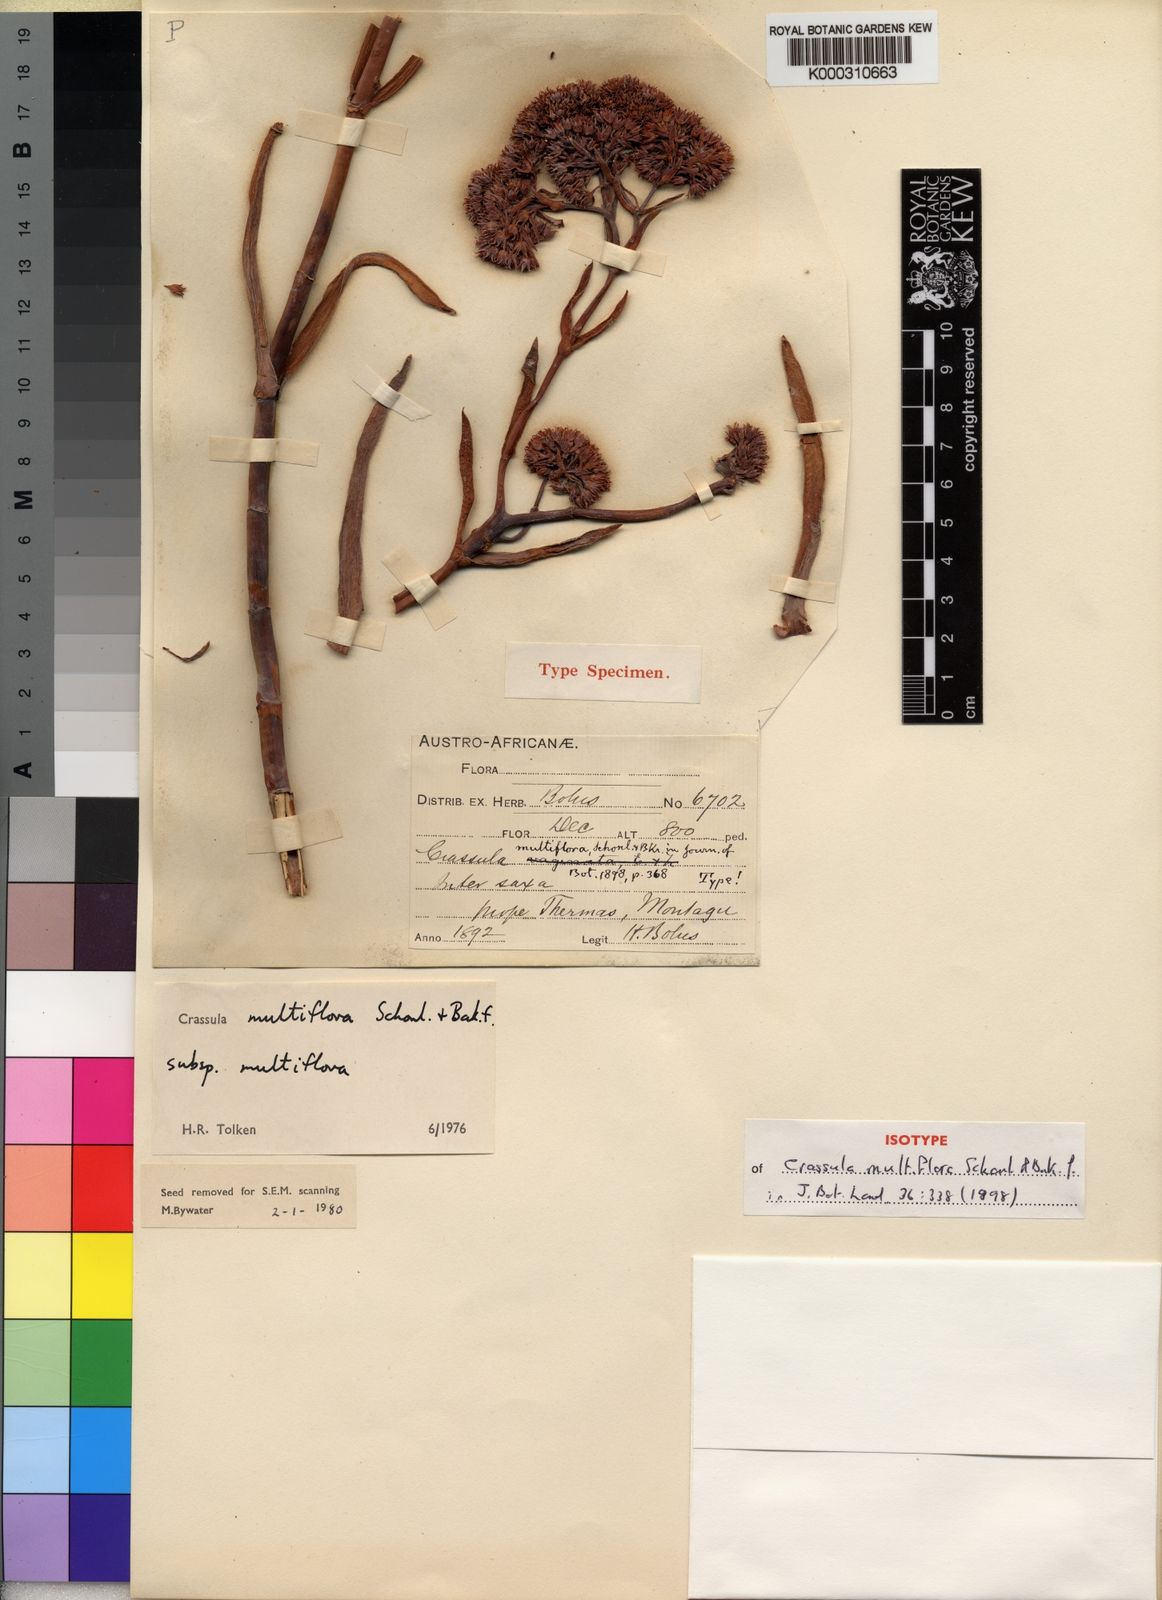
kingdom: Plantae
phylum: Tracheophyta
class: Magnoliopsida
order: Saxifragales
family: Crassulaceae
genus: Crassula
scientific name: Crassula
